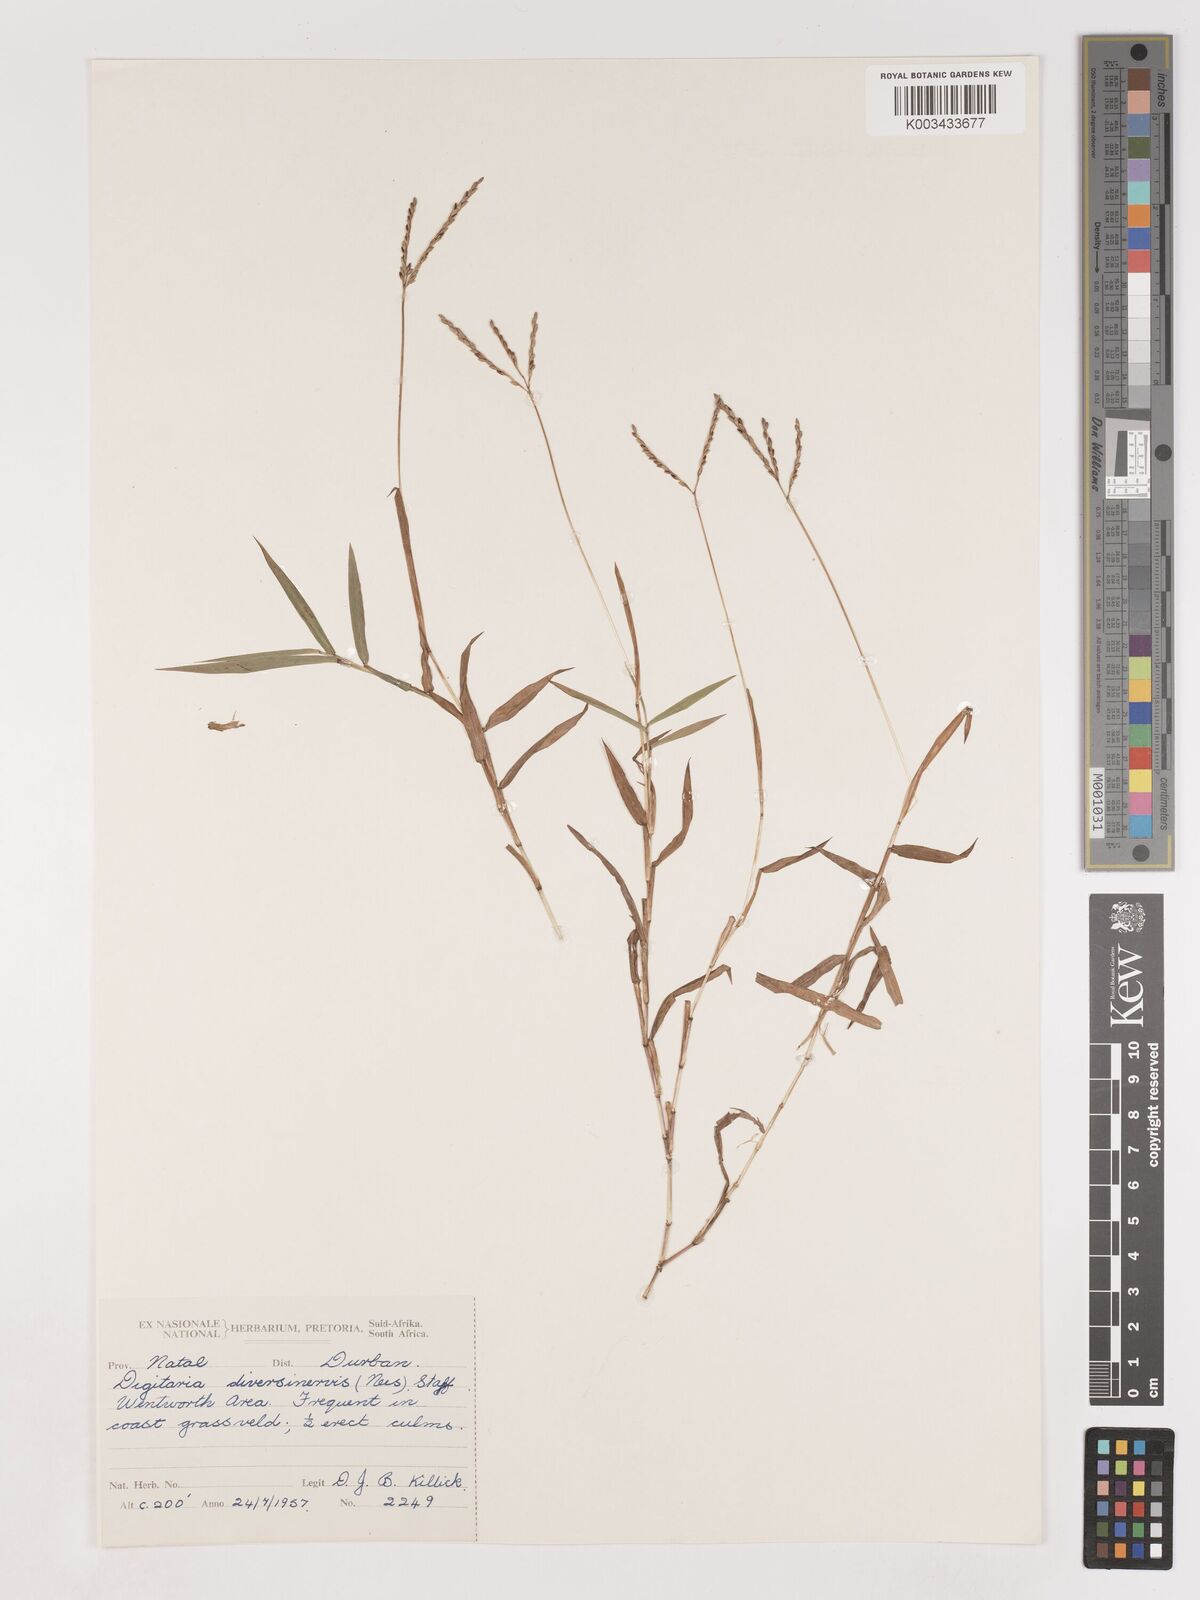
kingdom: Plantae
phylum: Tracheophyta
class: Liliopsida
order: Poales
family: Poaceae
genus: Digitaria
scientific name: Digitaria diversinervis
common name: Richmond finger grass
